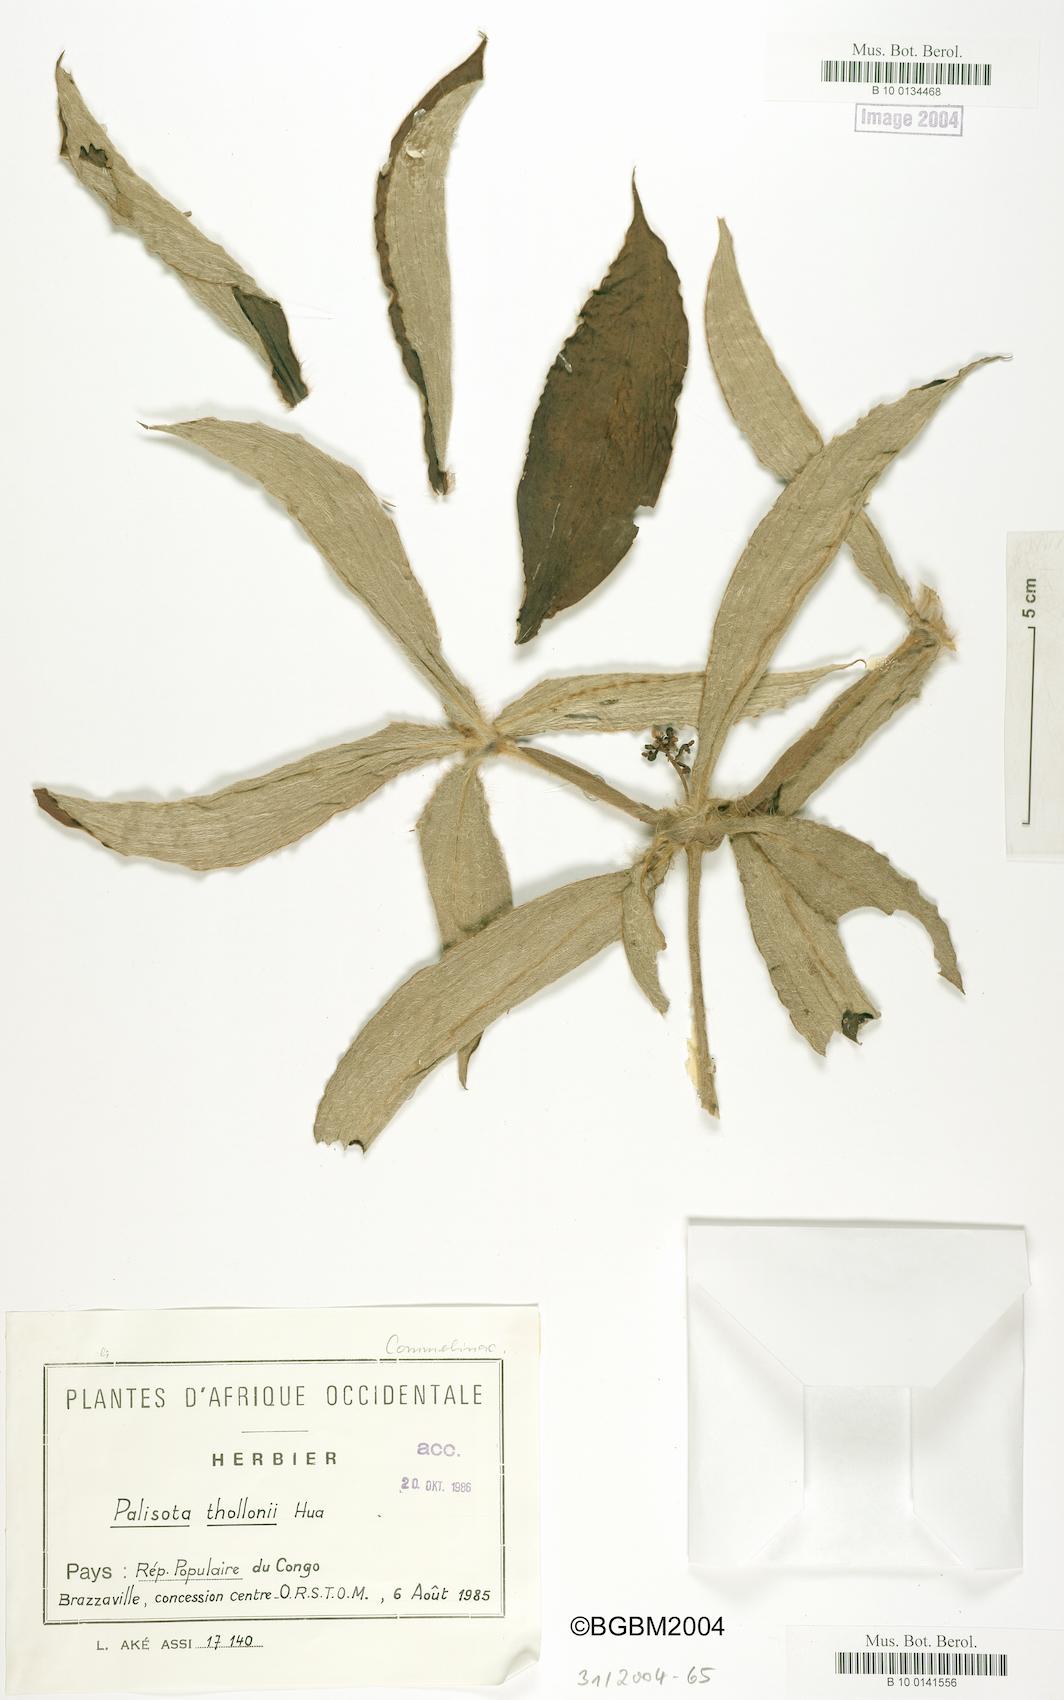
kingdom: Plantae
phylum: Tracheophyta
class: Liliopsida
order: Commelinales
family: Commelinaceae
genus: Palisota
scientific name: Palisota brachythyrsa
